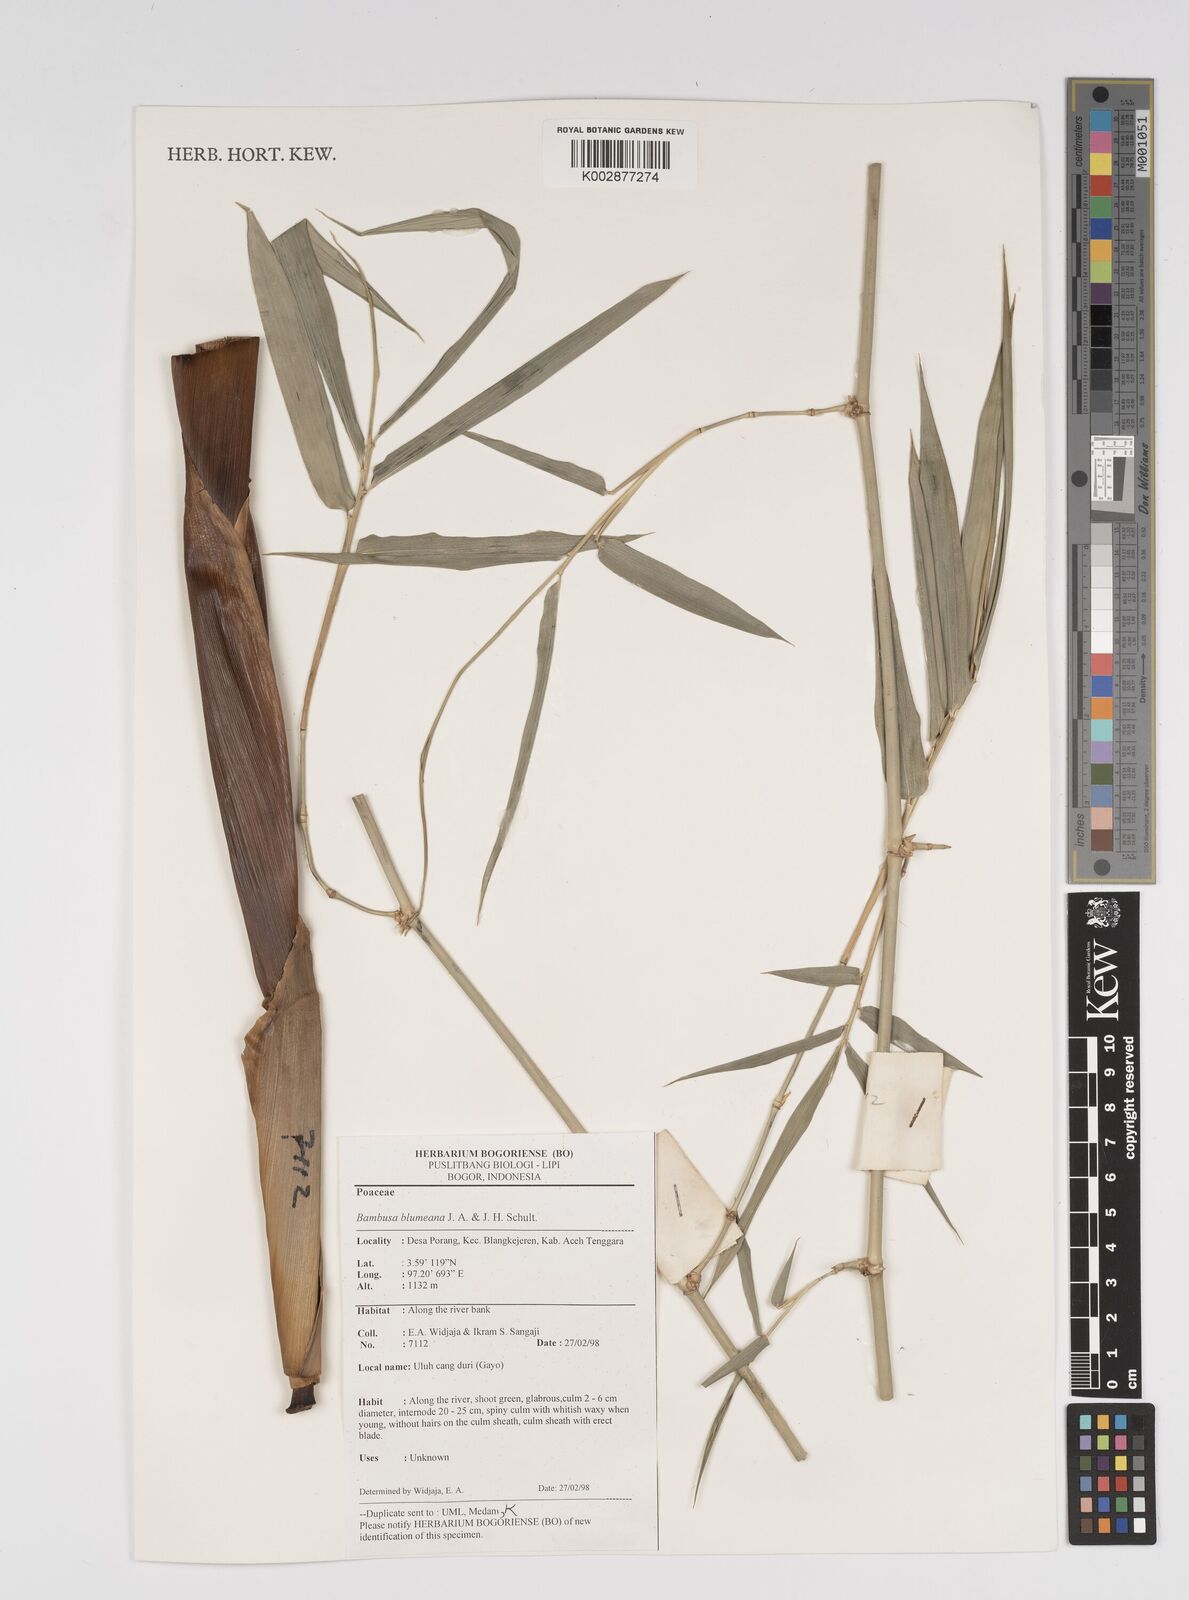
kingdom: Plantae
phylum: Tracheophyta
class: Liliopsida
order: Poales
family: Poaceae
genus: Bambusa
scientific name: Bambusa spinosa
